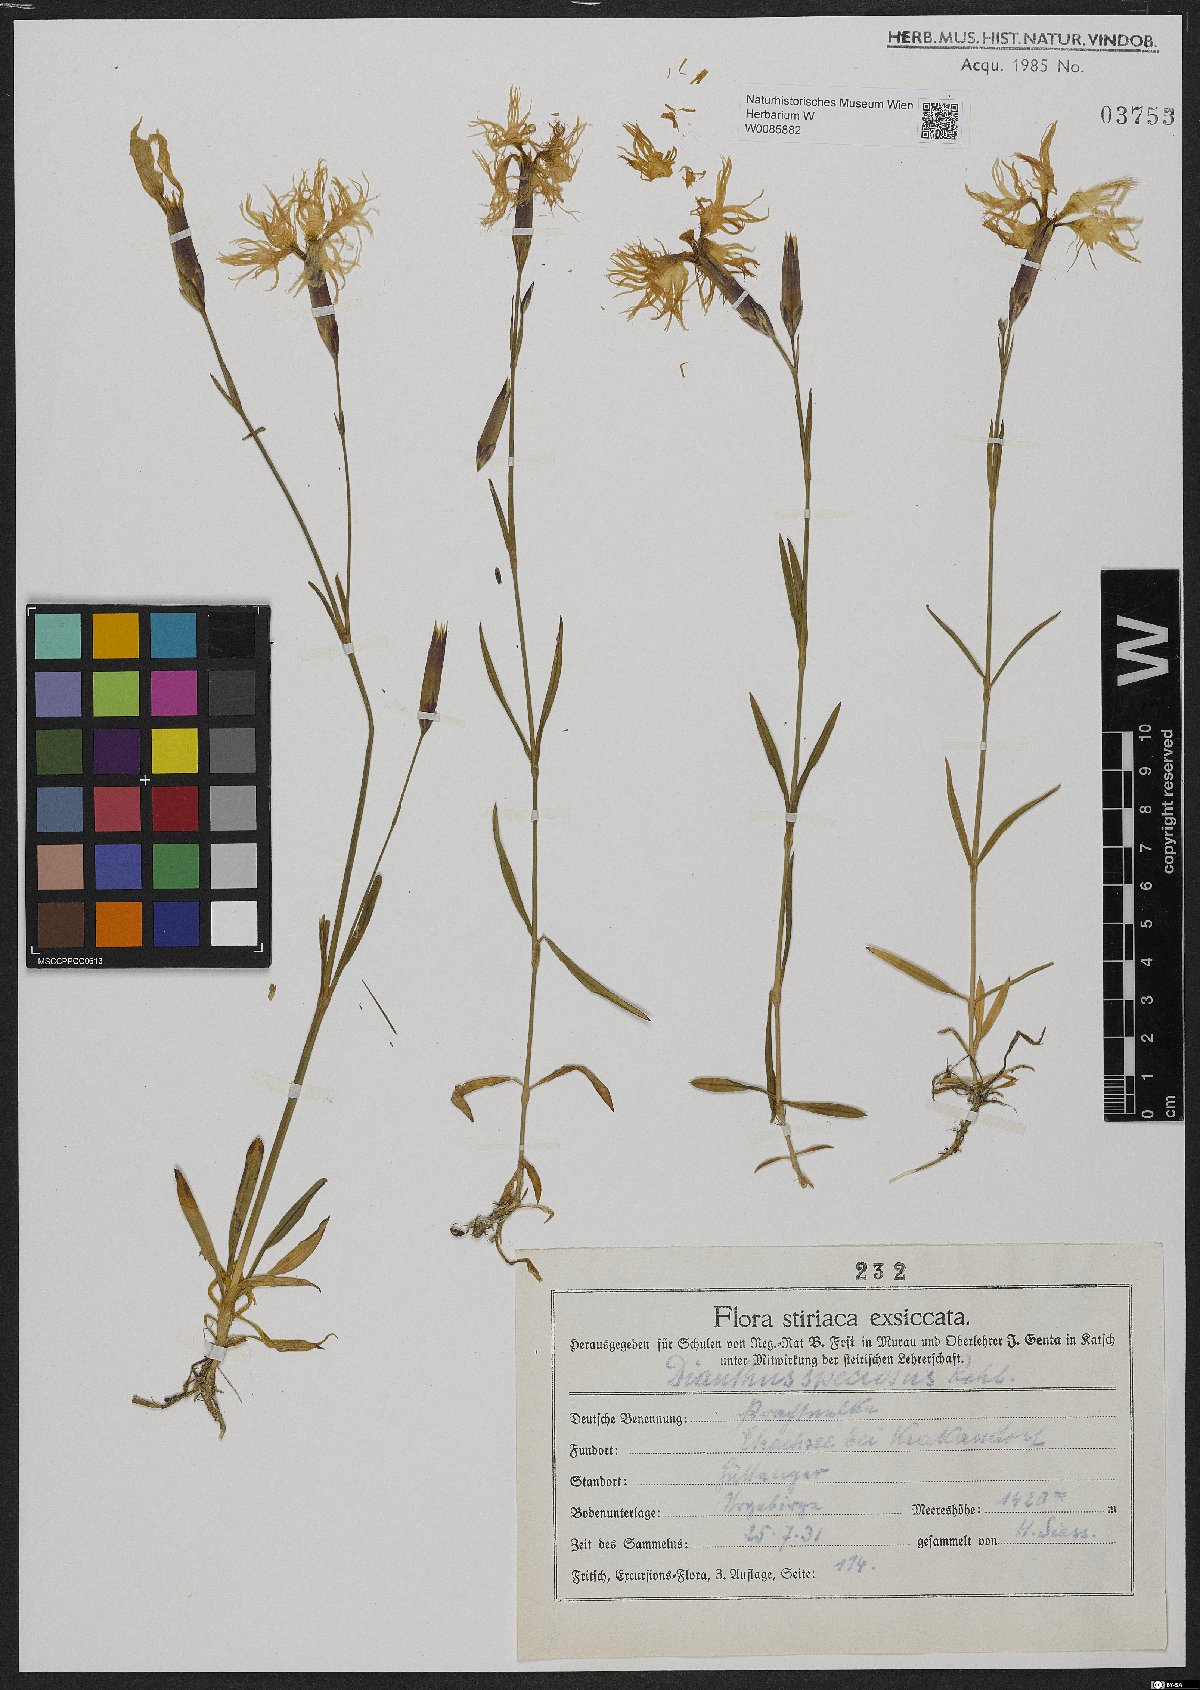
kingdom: Plantae
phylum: Tracheophyta
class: Magnoliopsida
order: Caryophyllales
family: Caryophyllaceae
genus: Dianthus
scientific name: Dianthus superbus
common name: Fringed pink
